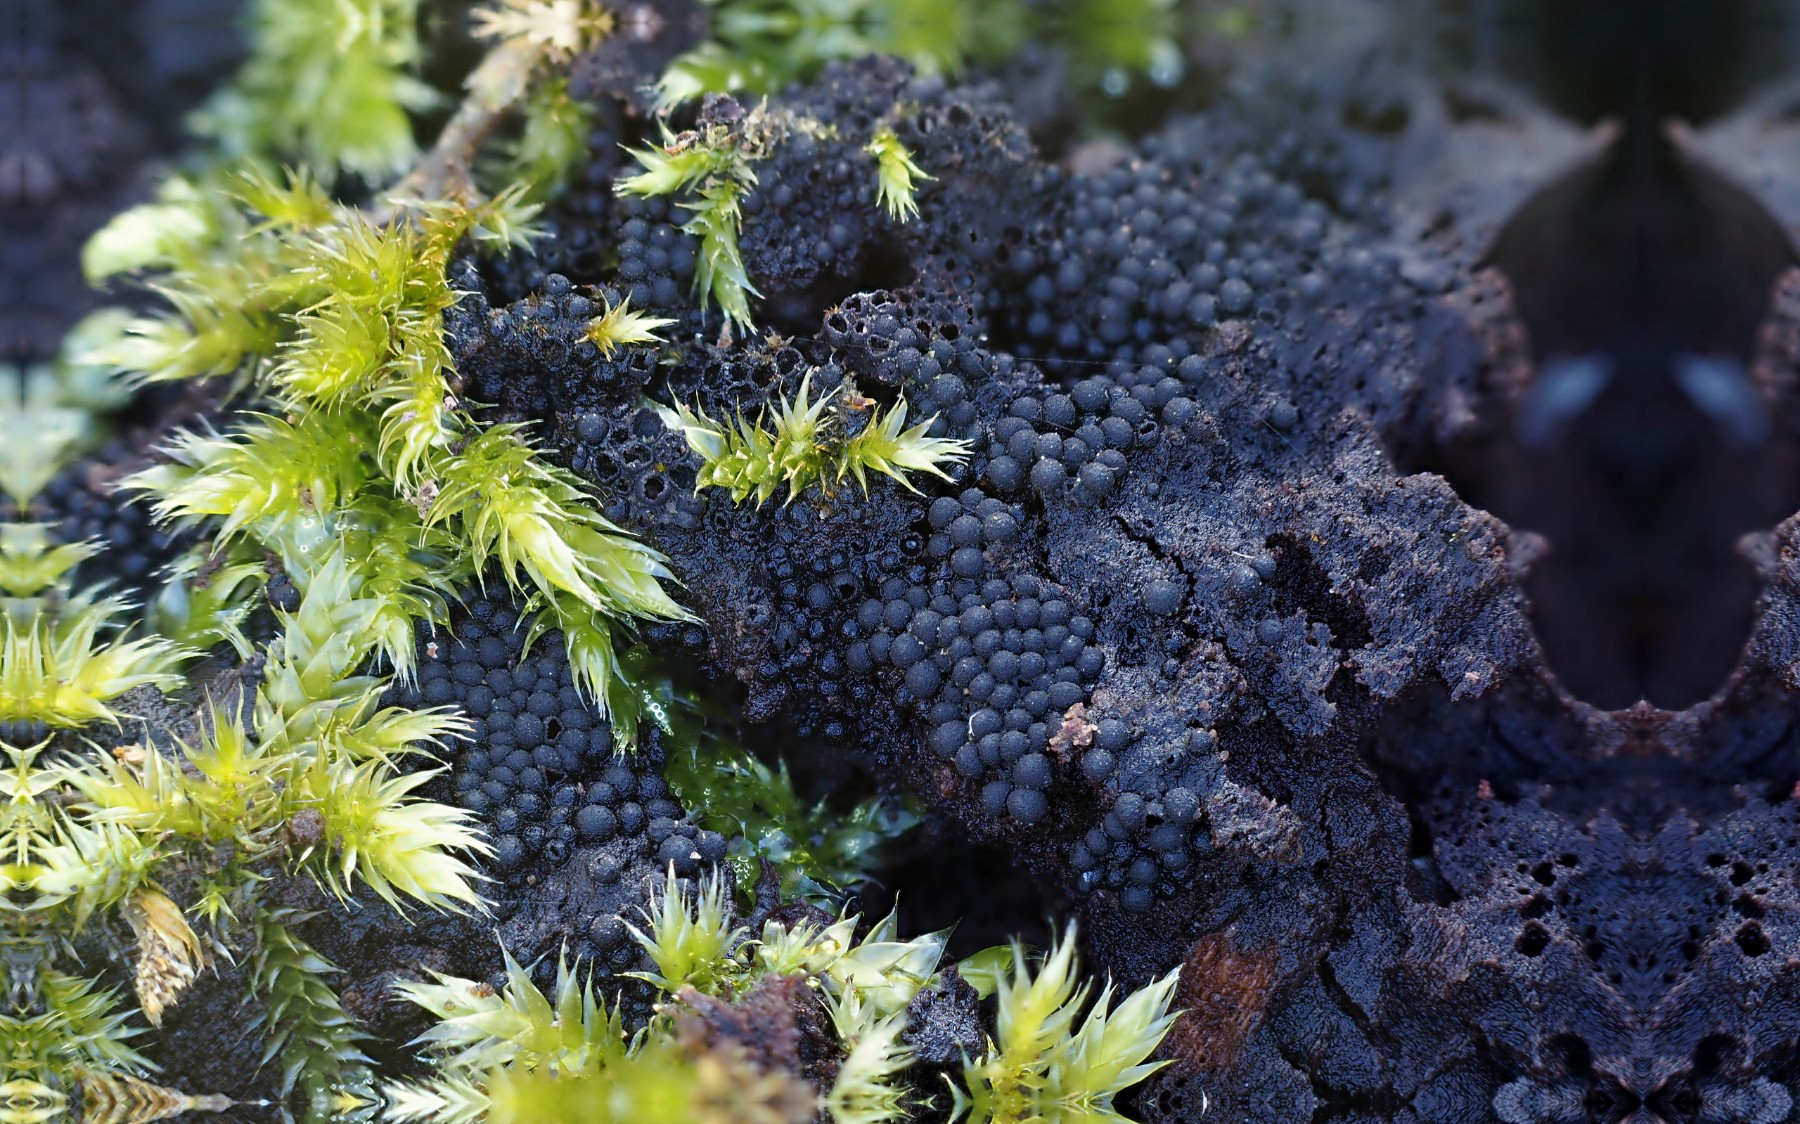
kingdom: Fungi
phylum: Ascomycota
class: Sordariomycetes
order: Sordariales
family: Helminthosphaeriaceae
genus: Ruzenia
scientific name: Ruzenia spermoides
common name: glat børstekerne
